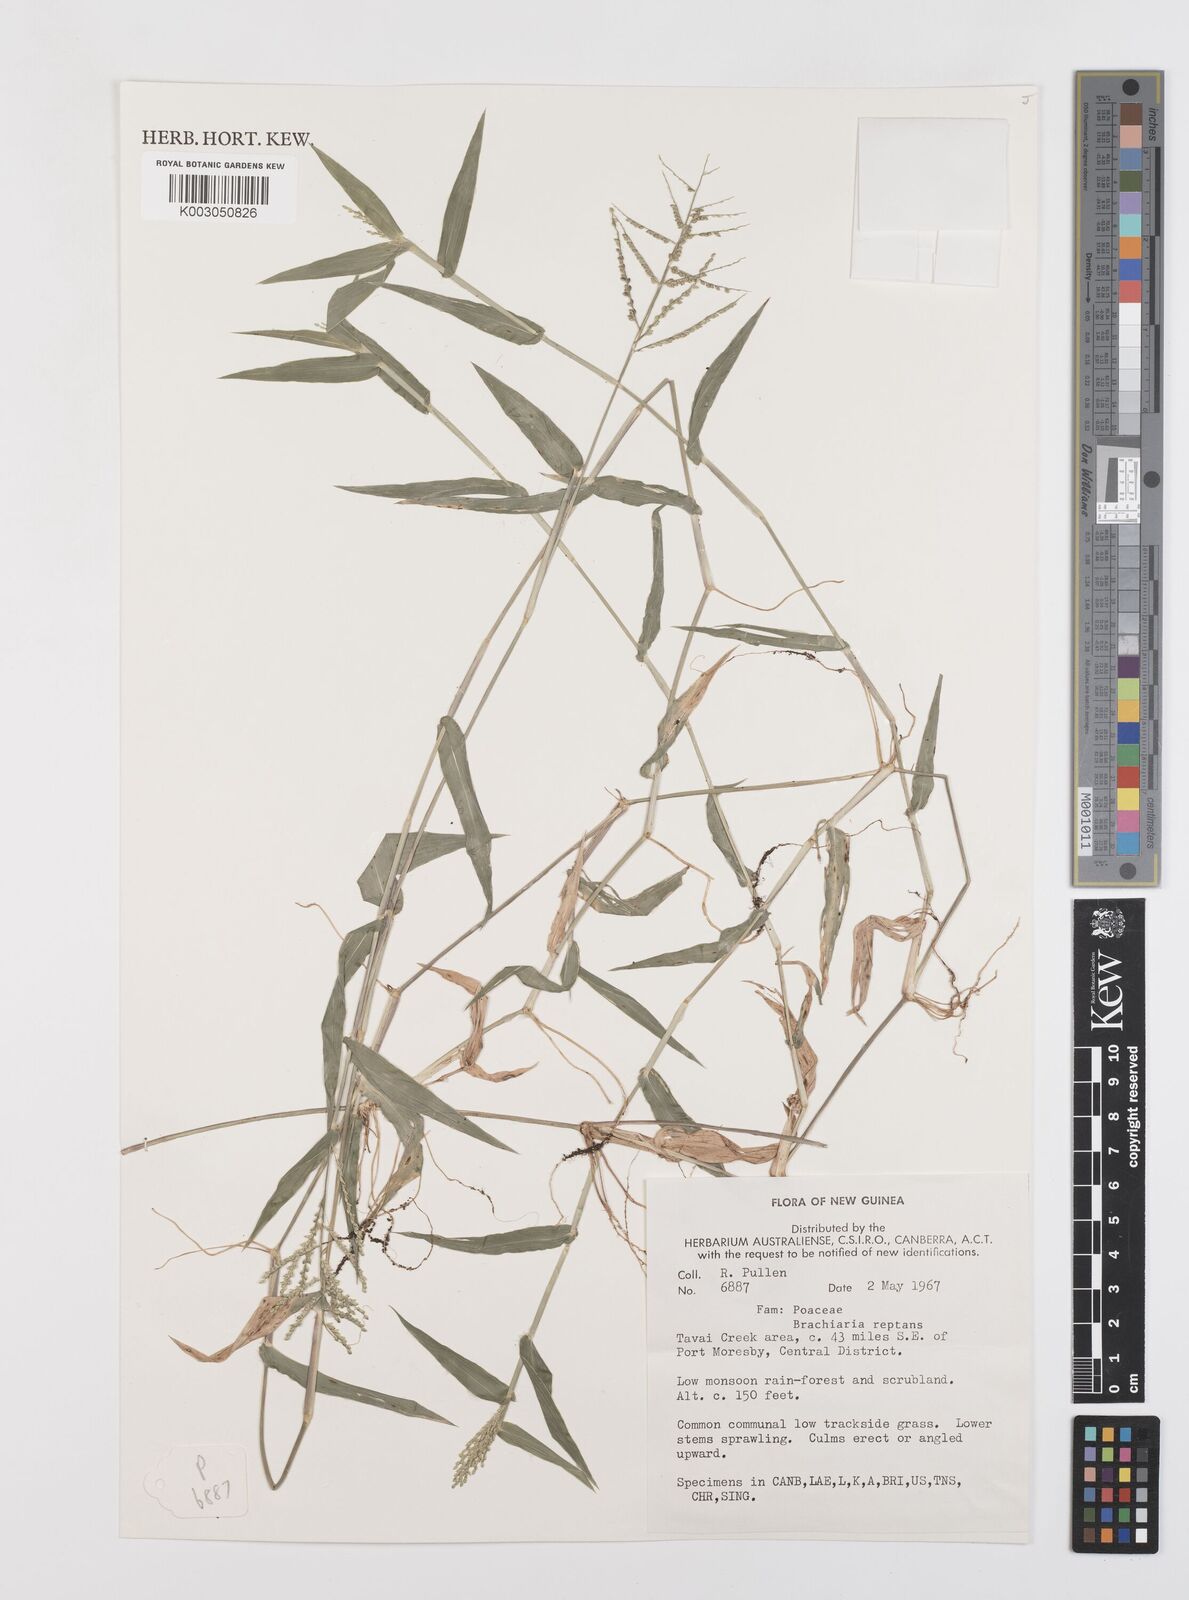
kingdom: Plantae
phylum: Tracheophyta
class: Liliopsida
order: Poales
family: Poaceae
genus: Urochloa
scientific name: Urochloa reptans
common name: Sprawling signalgrass
